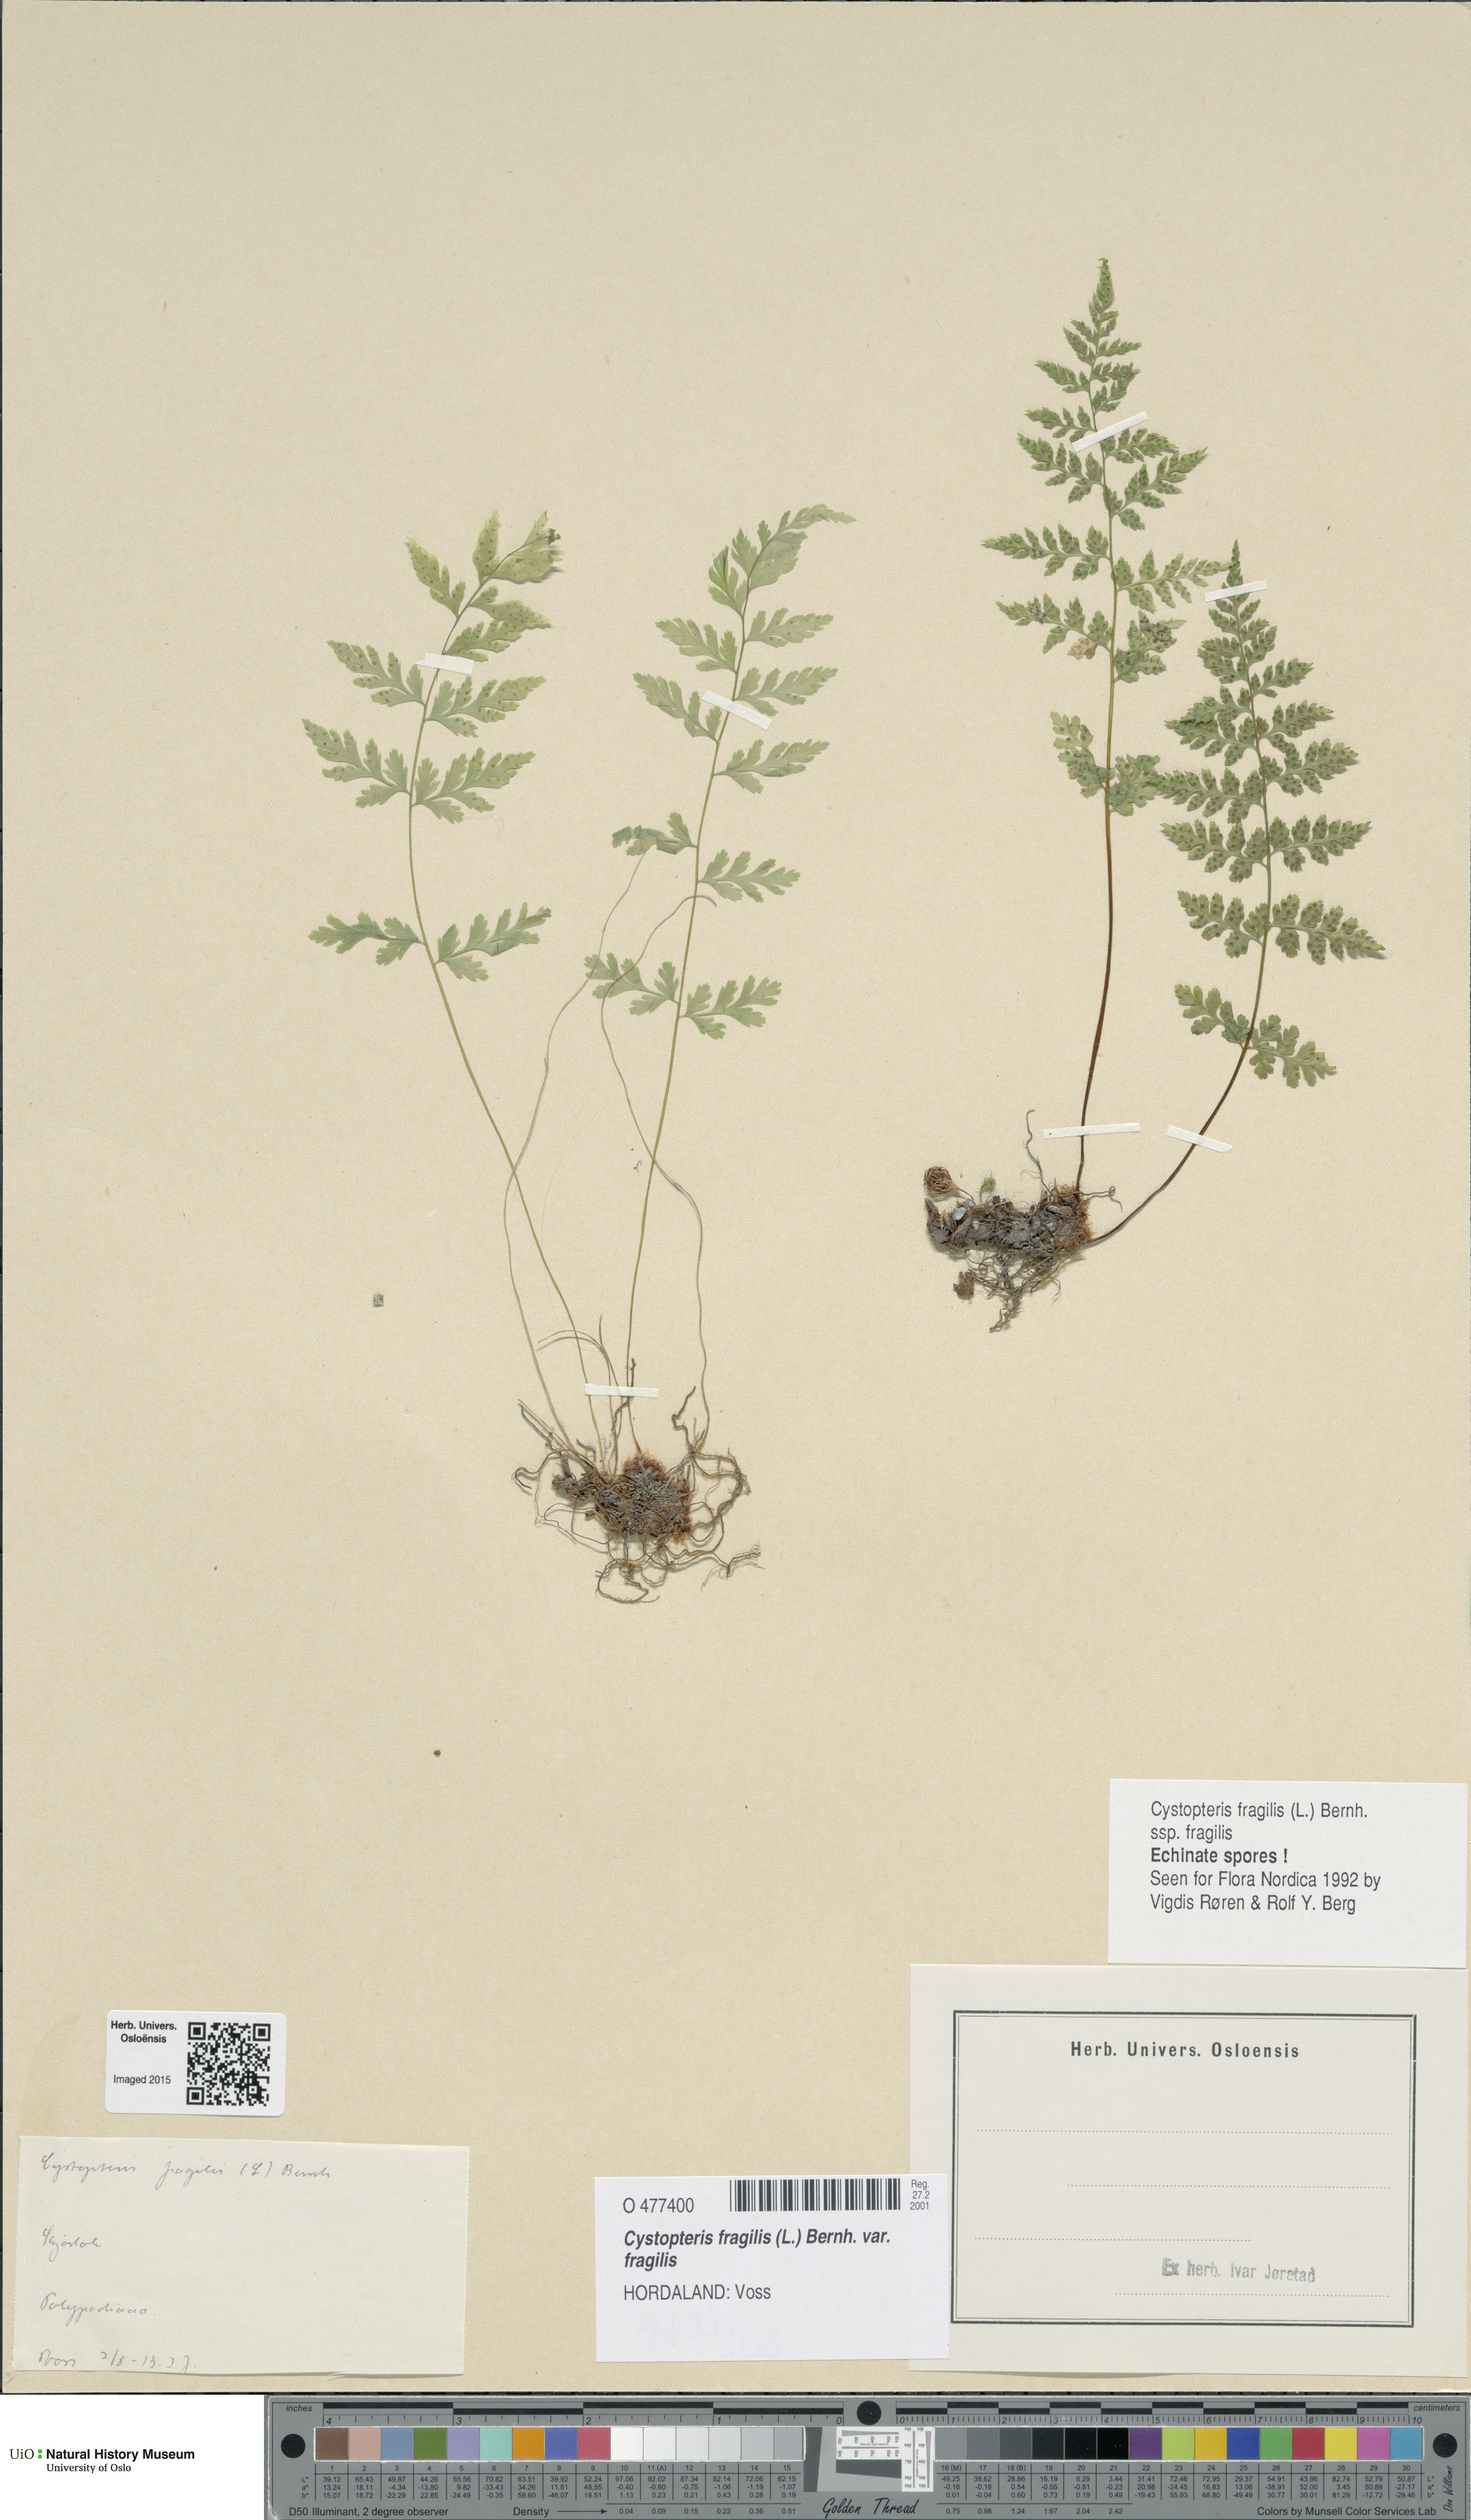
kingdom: Plantae
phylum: Tracheophyta
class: Polypodiopsida
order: Polypodiales
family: Cystopteridaceae
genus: Cystopteris
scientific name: Cystopteris fragilis
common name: Brittle bladder fern
